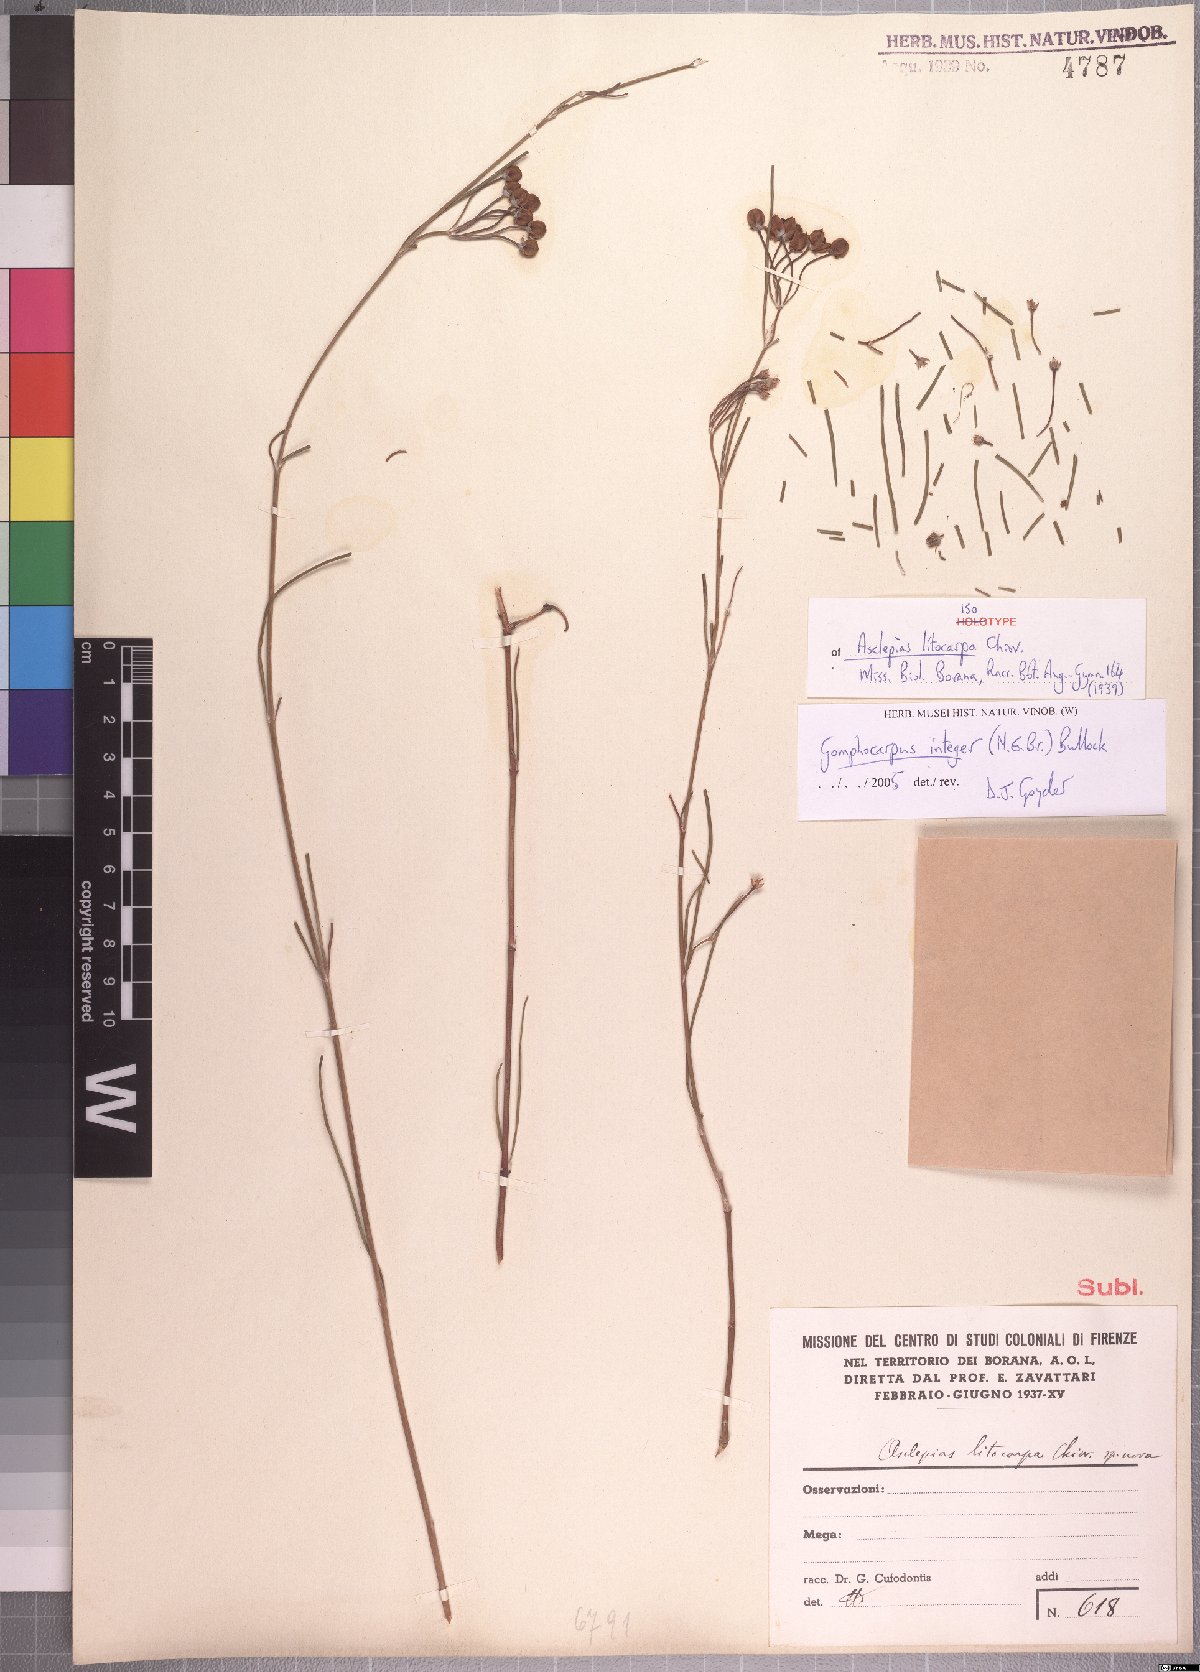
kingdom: Plantae
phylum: Tracheophyta
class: Magnoliopsida
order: Gentianales
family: Apocynaceae
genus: Gomphocarpus
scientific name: Gomphocarpus integer
